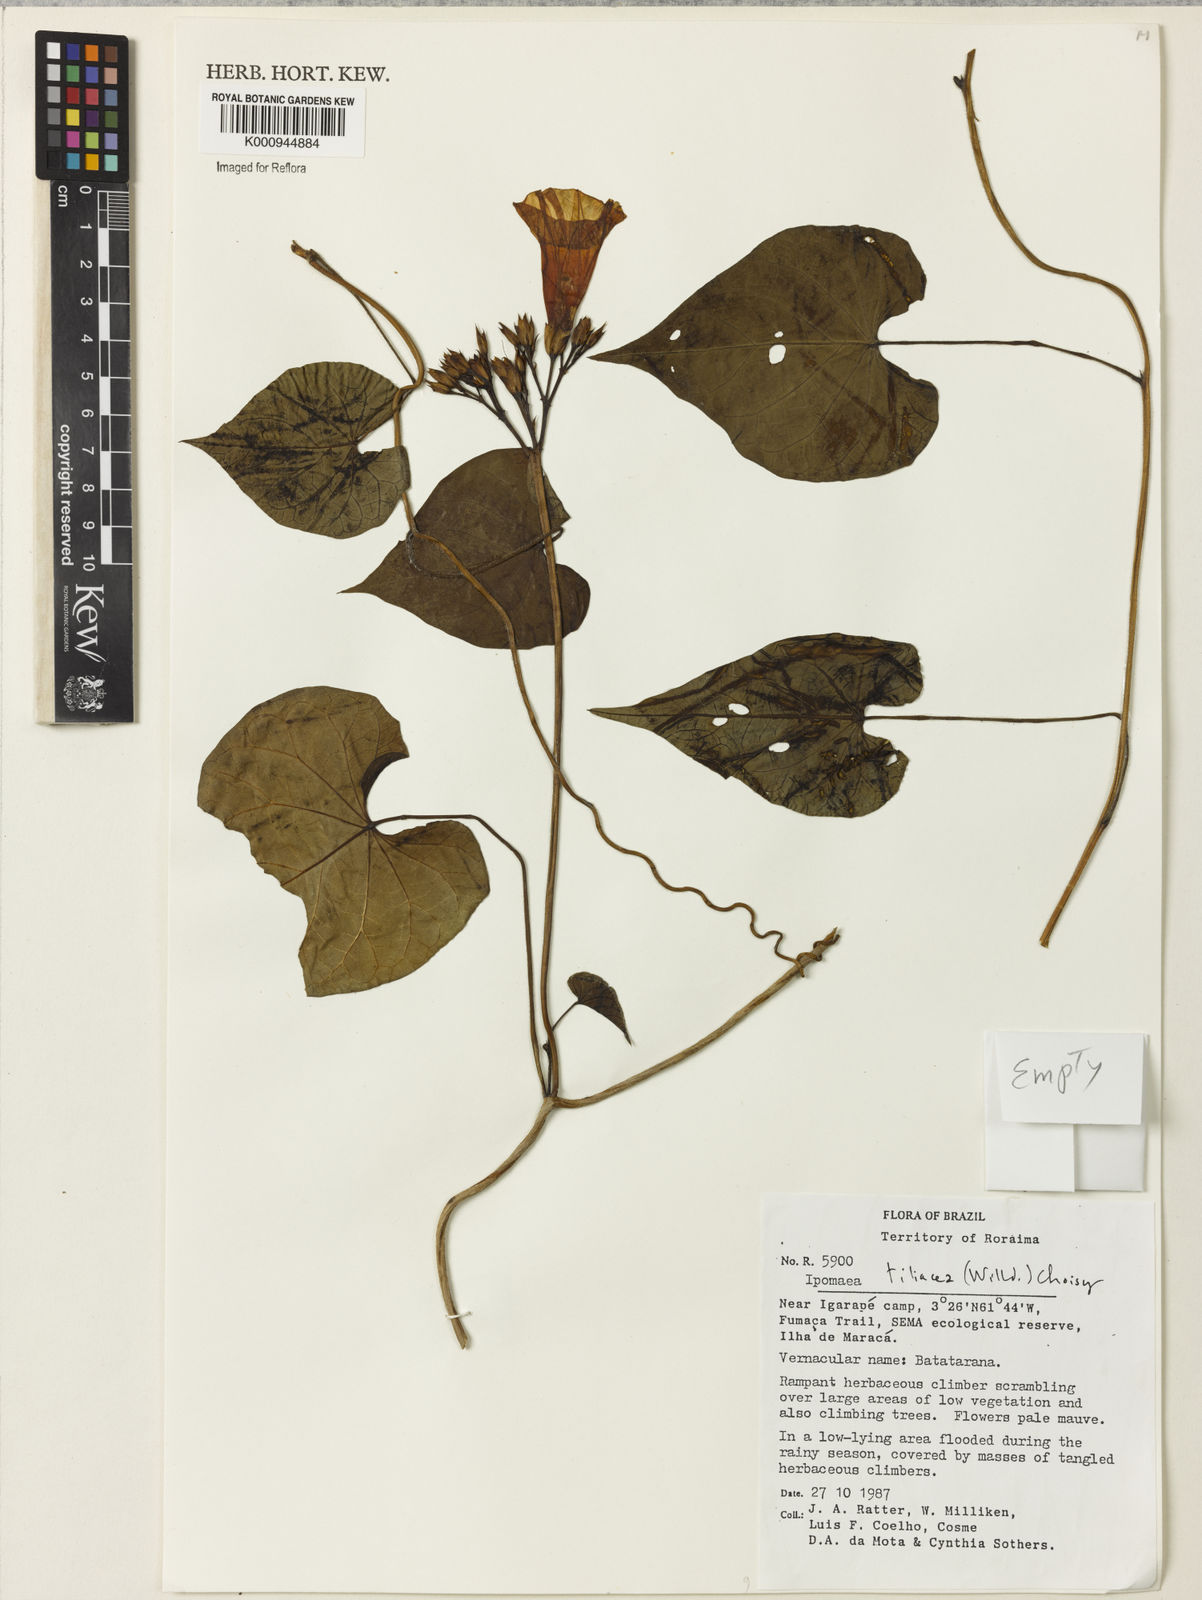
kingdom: Plantae
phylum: Tracheophyta
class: Magnoliopsida
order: Solanales
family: Convolvulaceae
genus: Ipomoea
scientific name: Ipomoea tiliacea
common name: Wild potato vine
